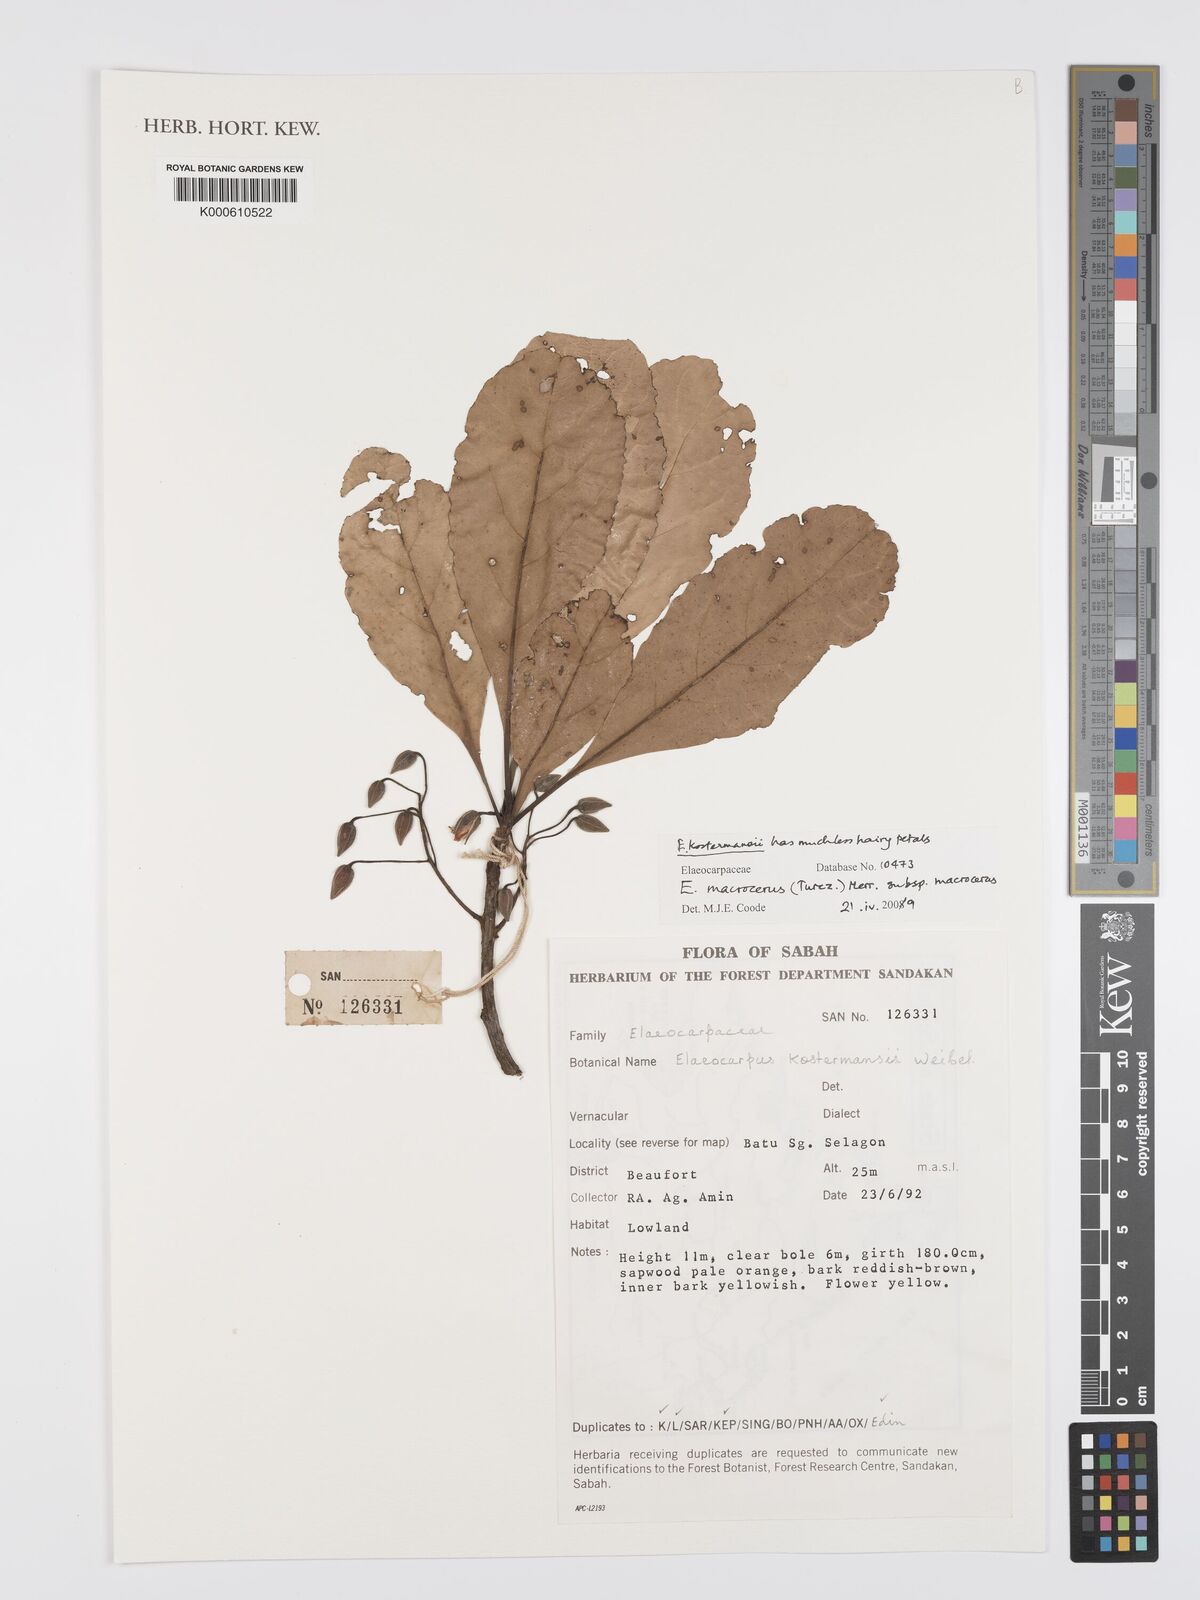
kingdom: Plantae
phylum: Tracheophyta
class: Magnoliopsida
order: Oxalidales
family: Elaeocarpaceae
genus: Elaeocarpus
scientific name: Elaeocarpus macrocerus
